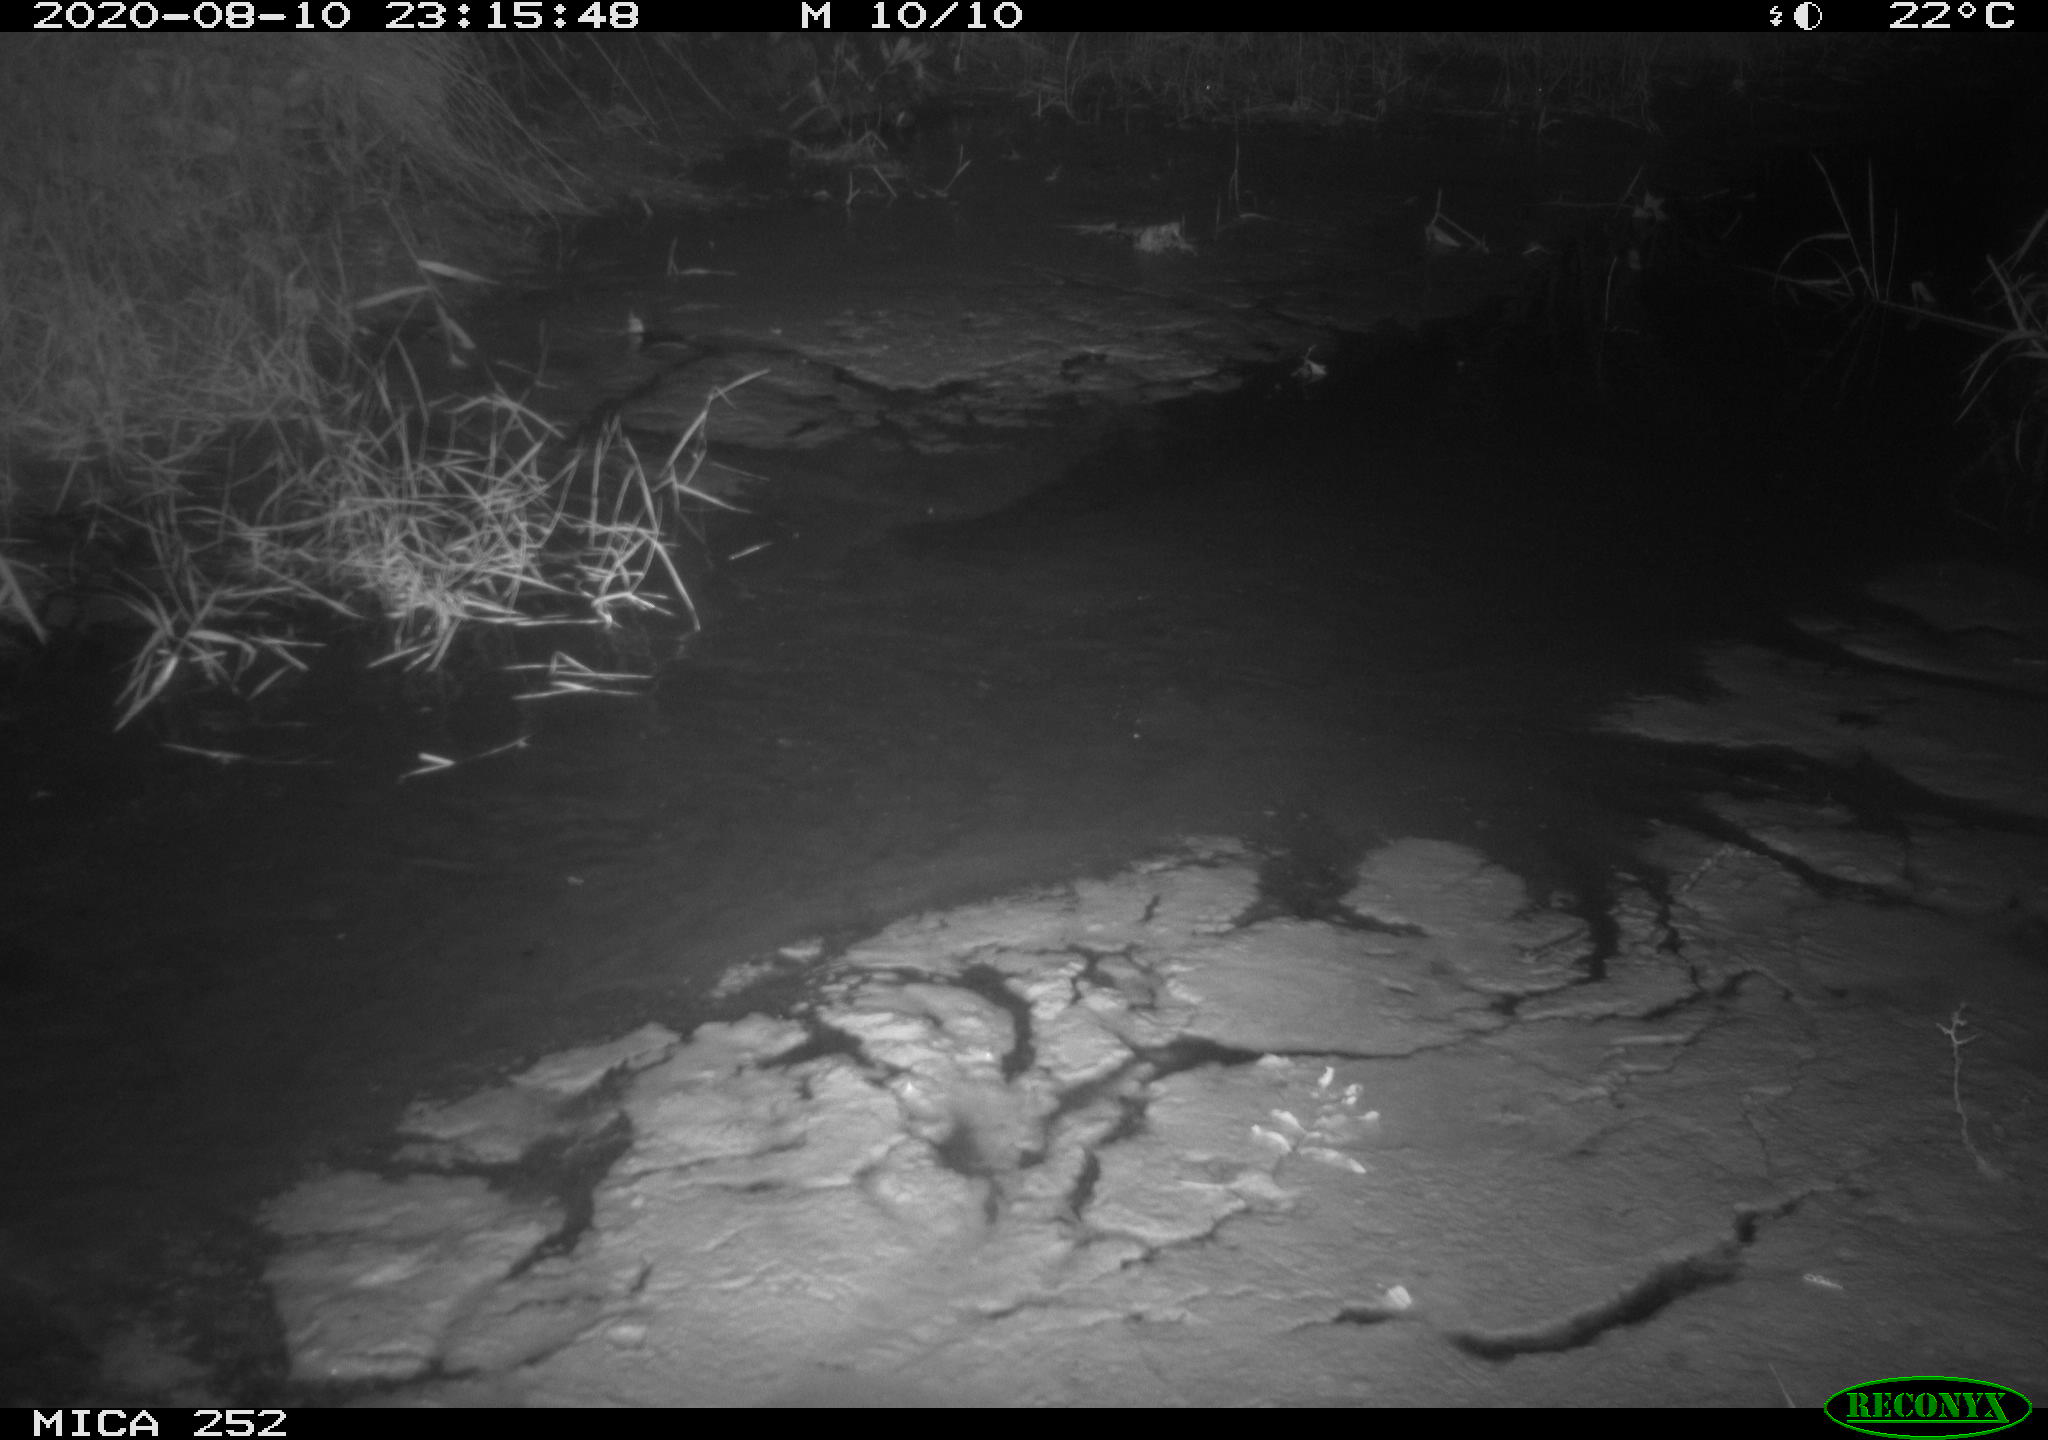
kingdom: Animalia
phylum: Chordata
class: Mammalia
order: Rodentia
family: Castoridae
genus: Castor
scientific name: Castor fiber
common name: Eurasian beaver
